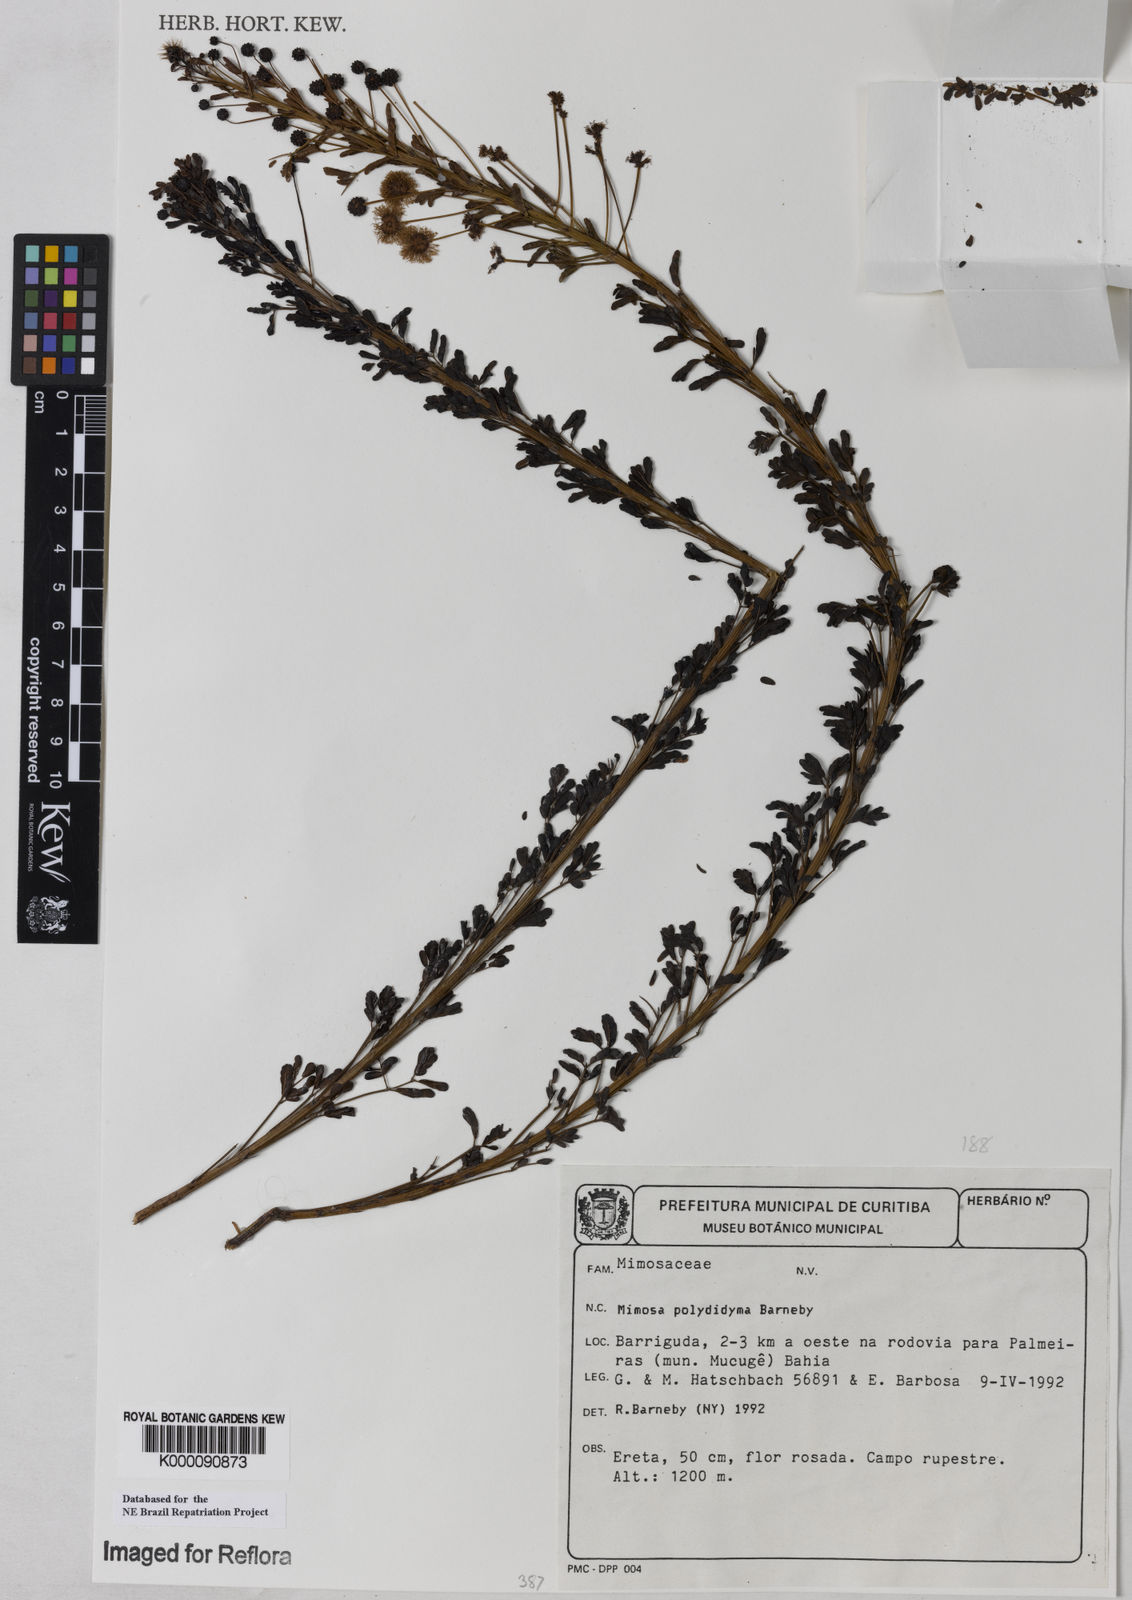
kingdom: Plantae
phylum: Tracheophyta
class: Magnoliopsida
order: Fabales
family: Fabaceae
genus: Mimosa
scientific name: Mimosa polydidyma
